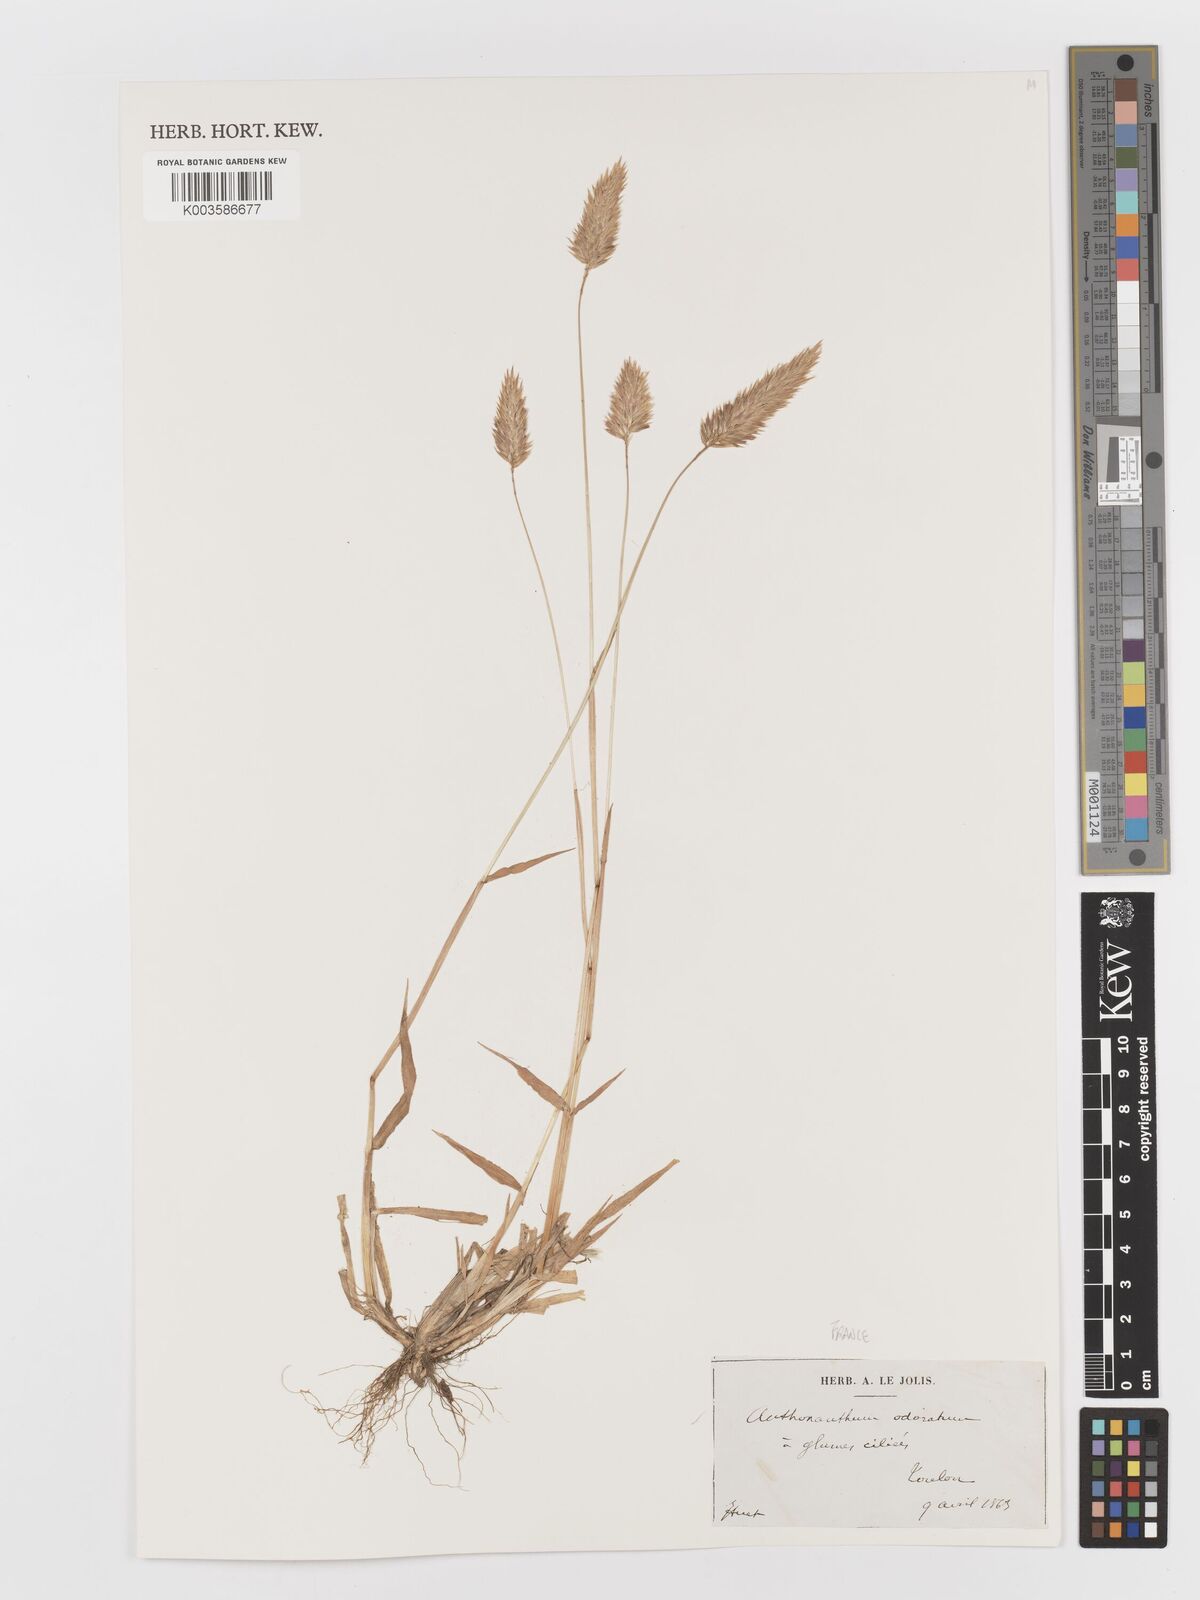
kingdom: Plantae
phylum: Tracheophyta
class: Liliopsida
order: Poales
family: Poaceae
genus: Anthoxanthum
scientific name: Anthoxanthum odoratum
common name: Sweet vernalgrass
